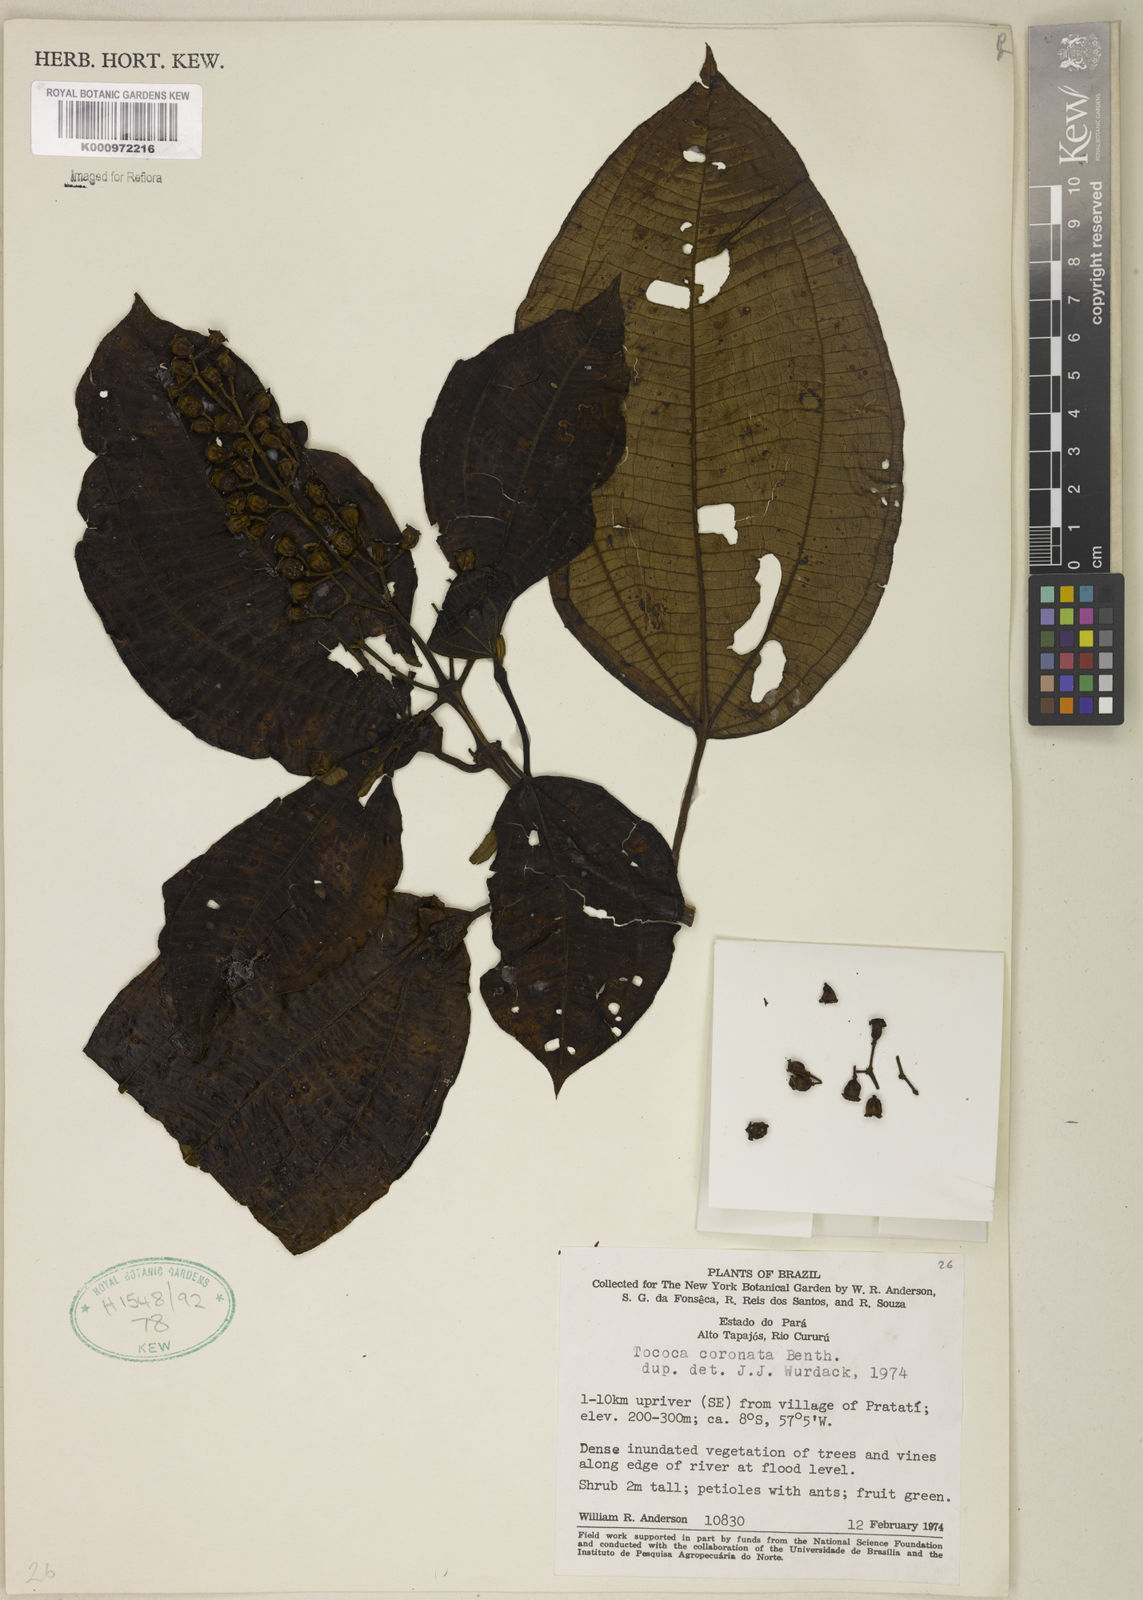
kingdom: Plantae
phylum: Tracheophyta
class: Magnoliopsida
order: Myrtales
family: Melastomataceae
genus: Miconia
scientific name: Miconia tococoronata
